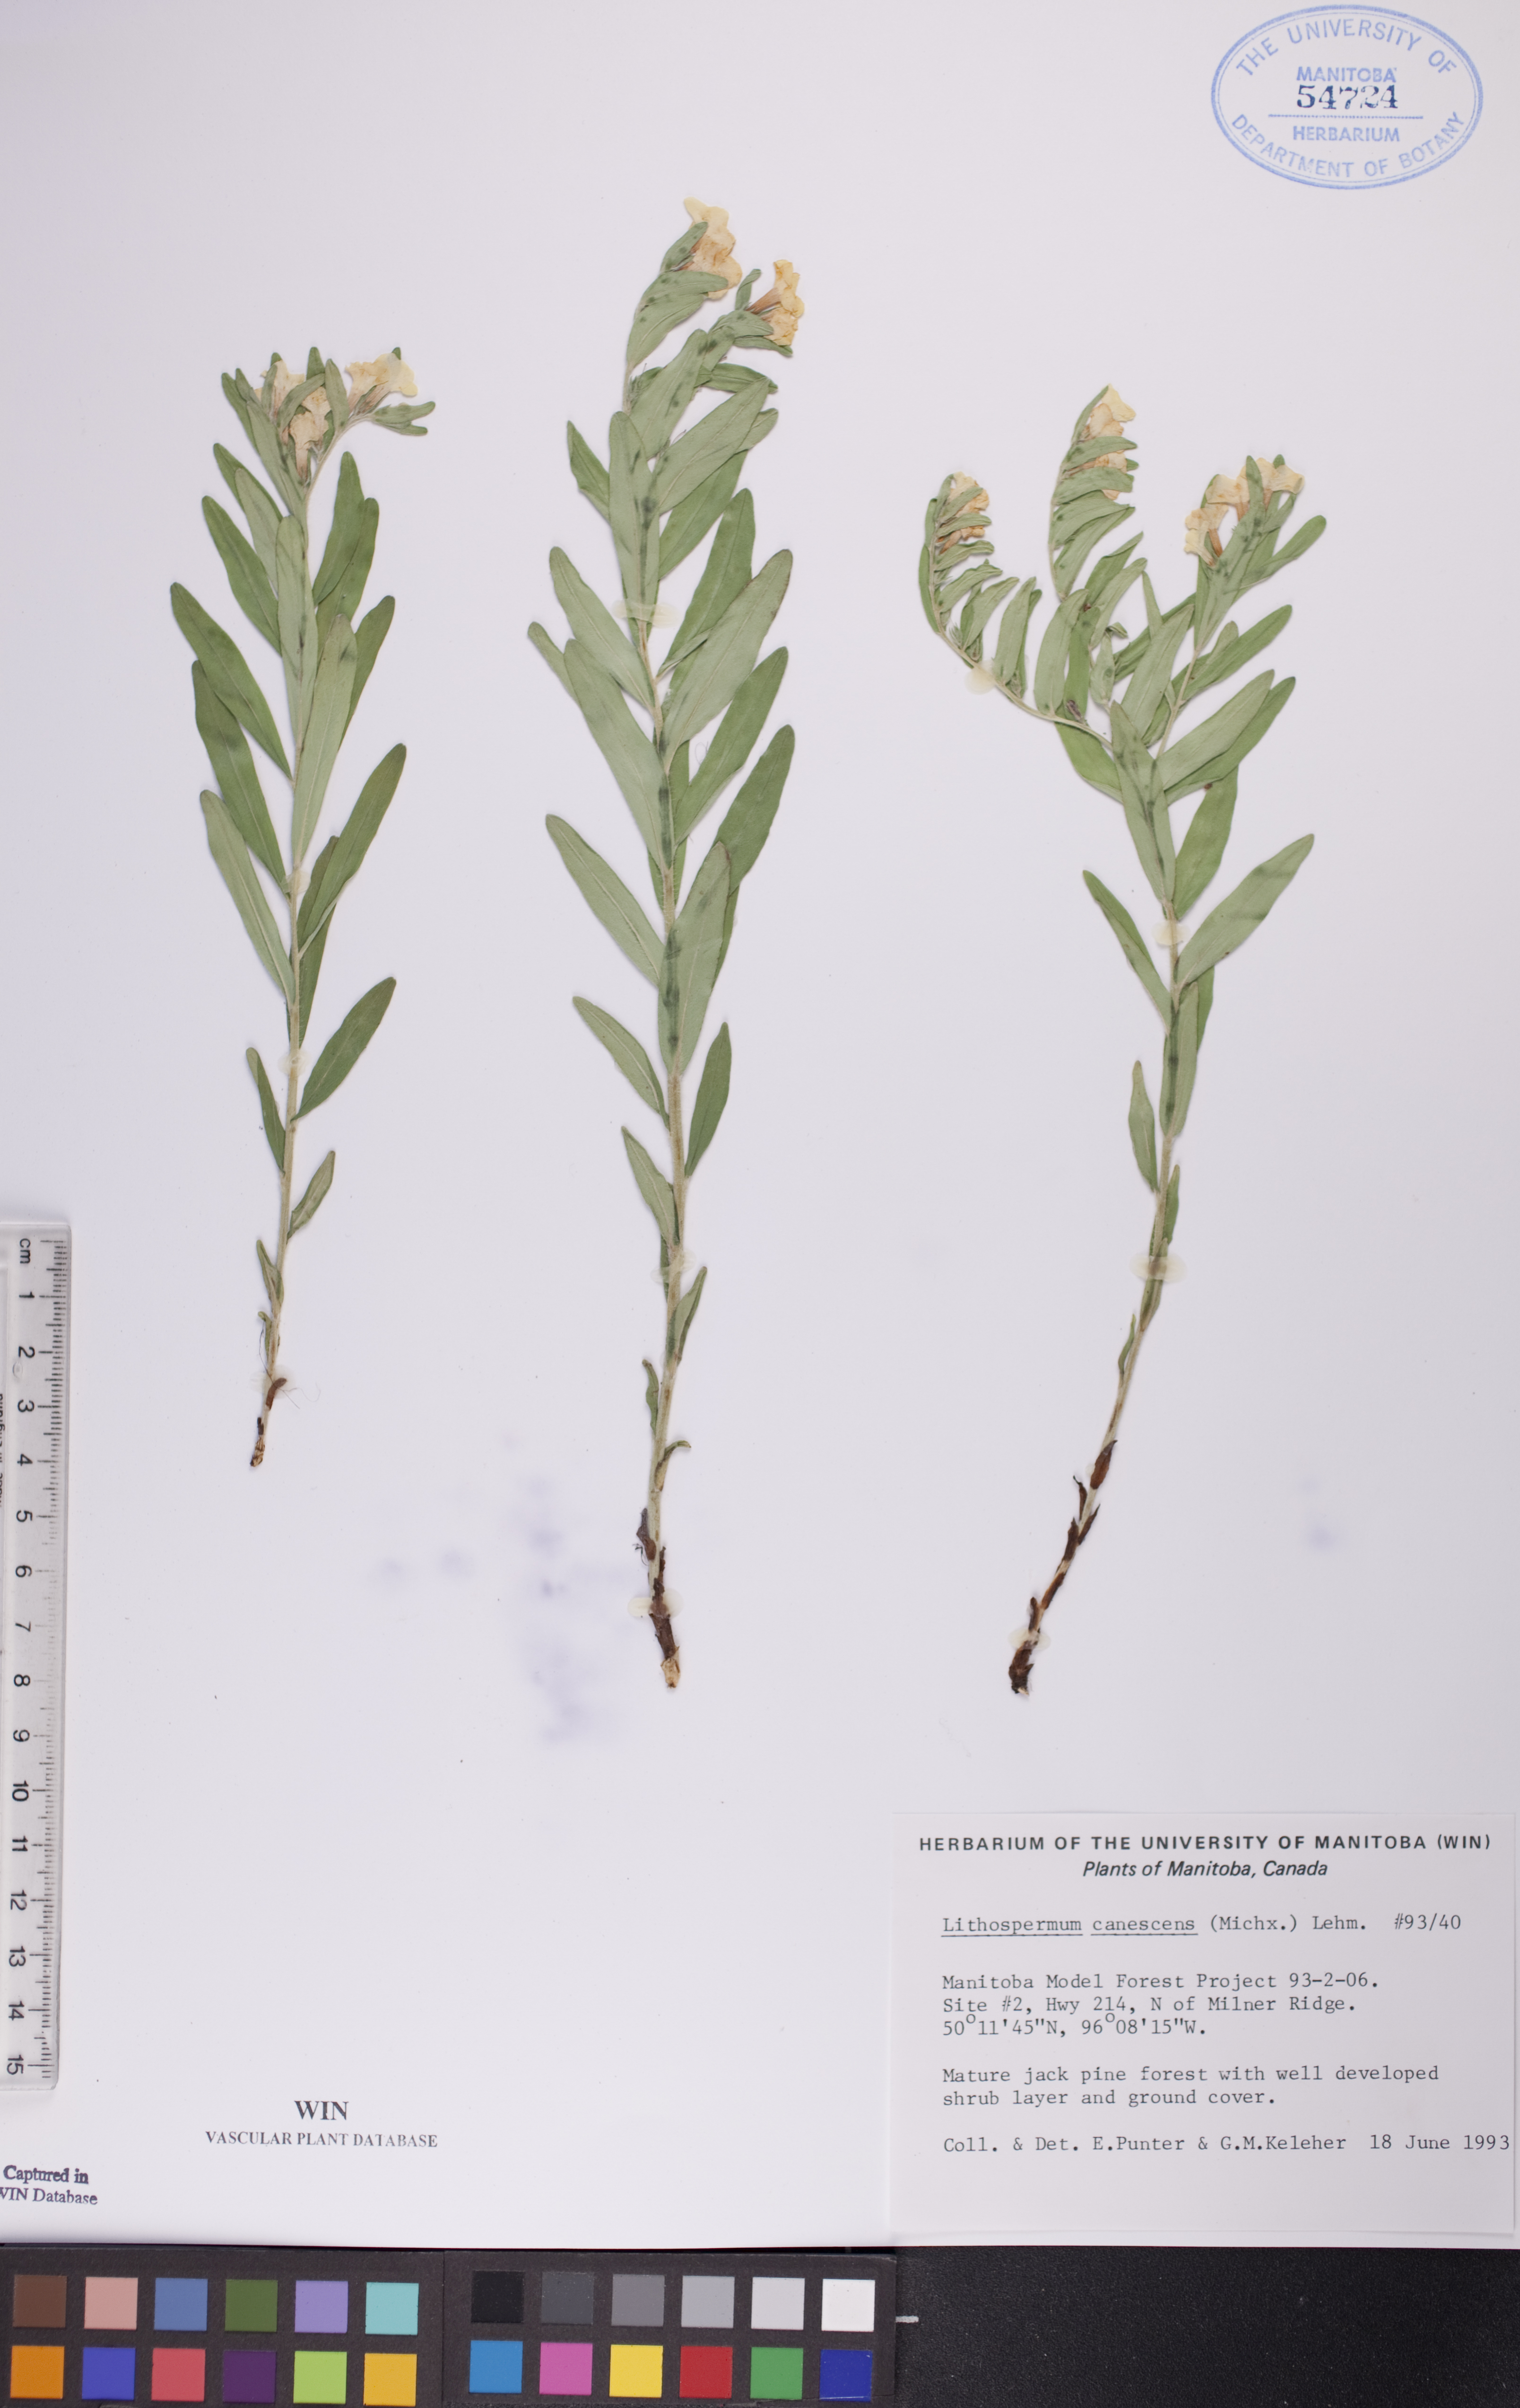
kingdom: Plantae
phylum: Tracheophyta
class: Magnoliopsida
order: Boraginales
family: Boraginaceae
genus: Lithospermum
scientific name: Lithospermum canescens
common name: Hoary puccoon
